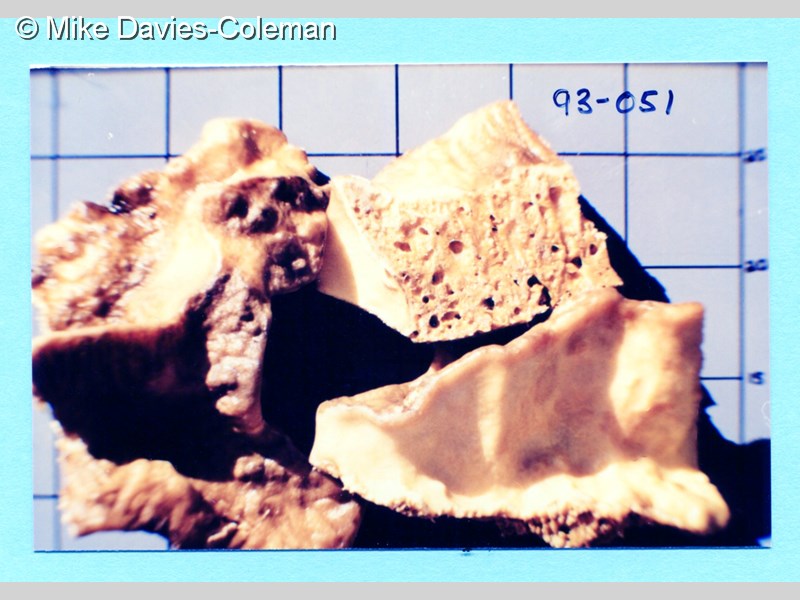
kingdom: Animalia
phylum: Porifera
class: Demospongiae
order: Clionaida
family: Clionaidae
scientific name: Clionaidae
